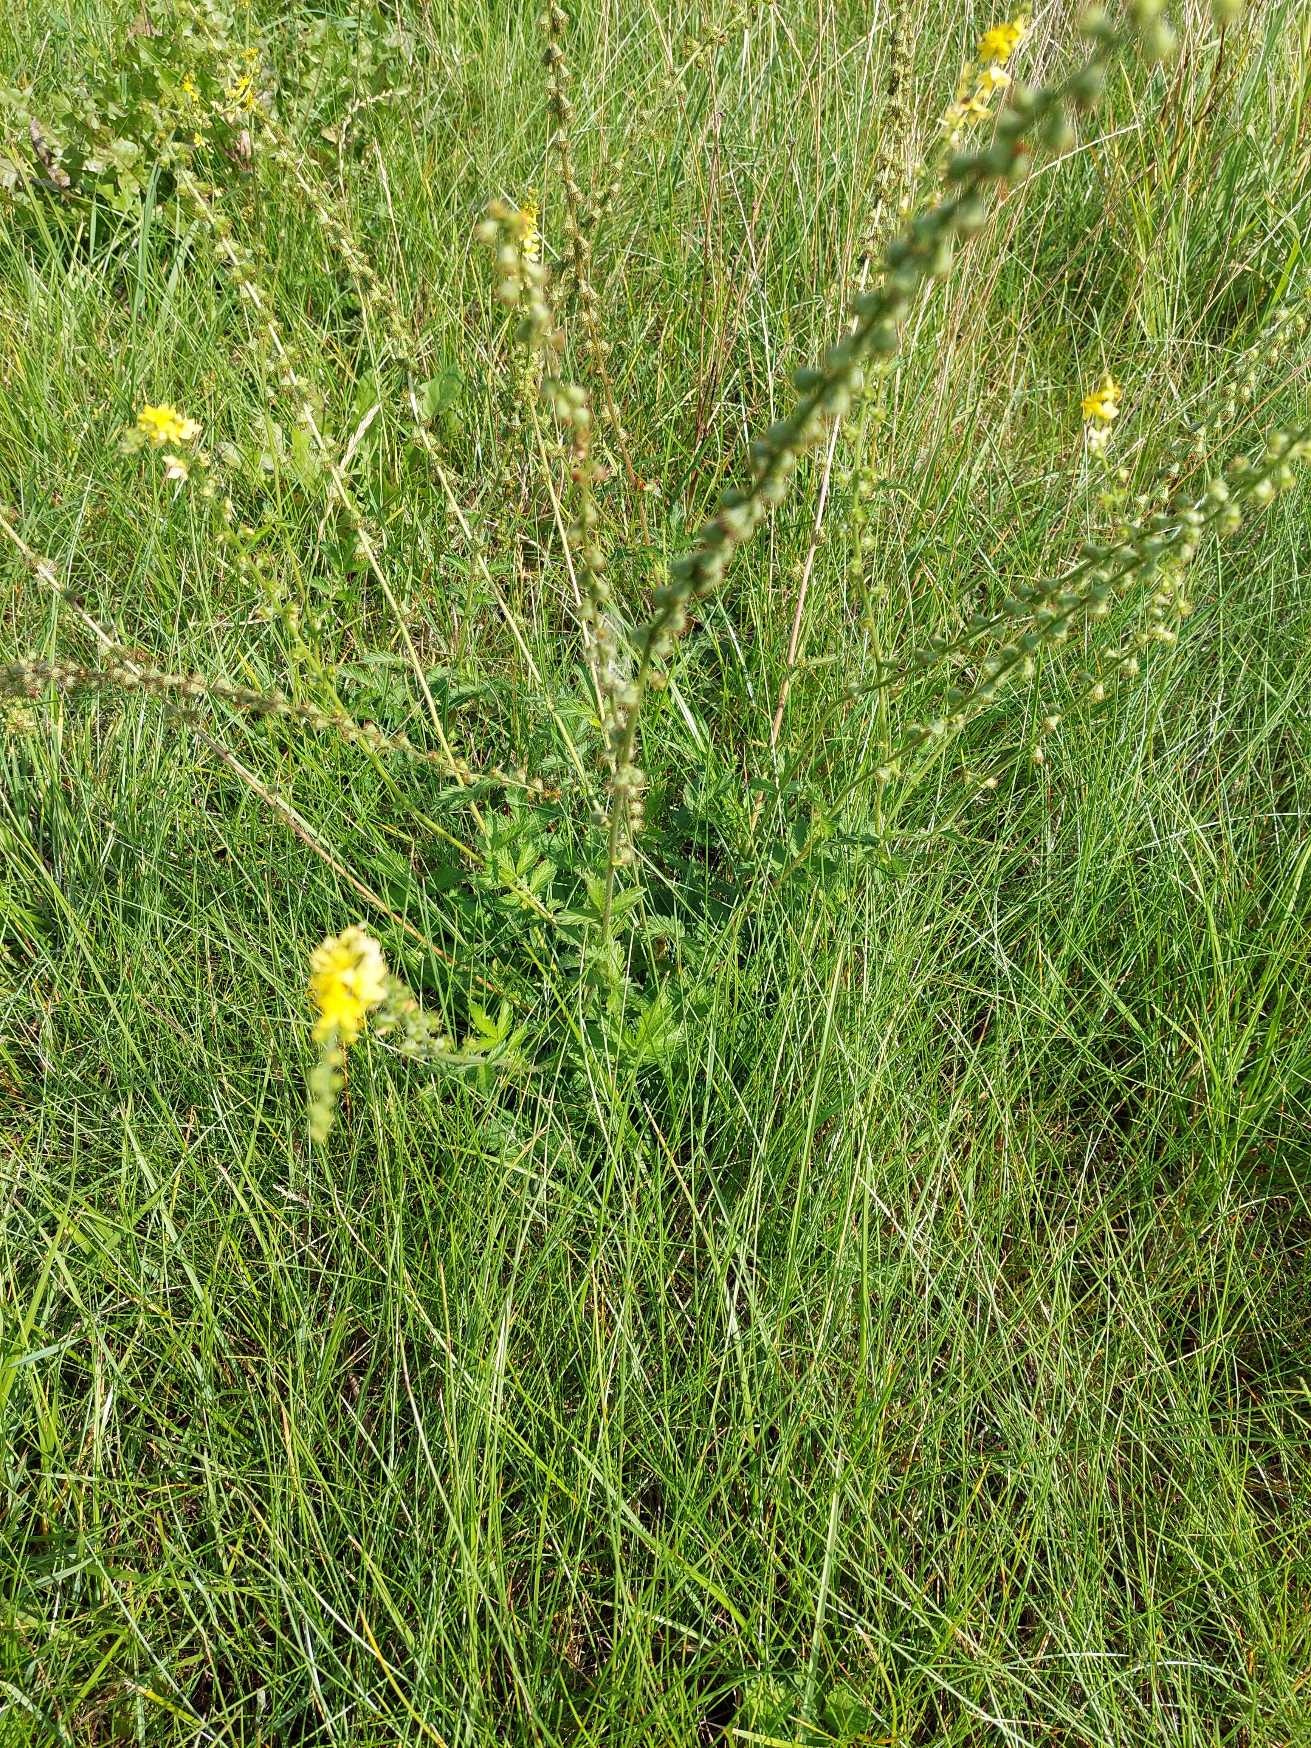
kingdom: Plantae
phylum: Tracheophyta
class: Magnoliopsida
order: Rosales
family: Rosaceae
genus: Agrimonia
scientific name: Agrimonia eupatoria
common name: Almindelig agermåne
